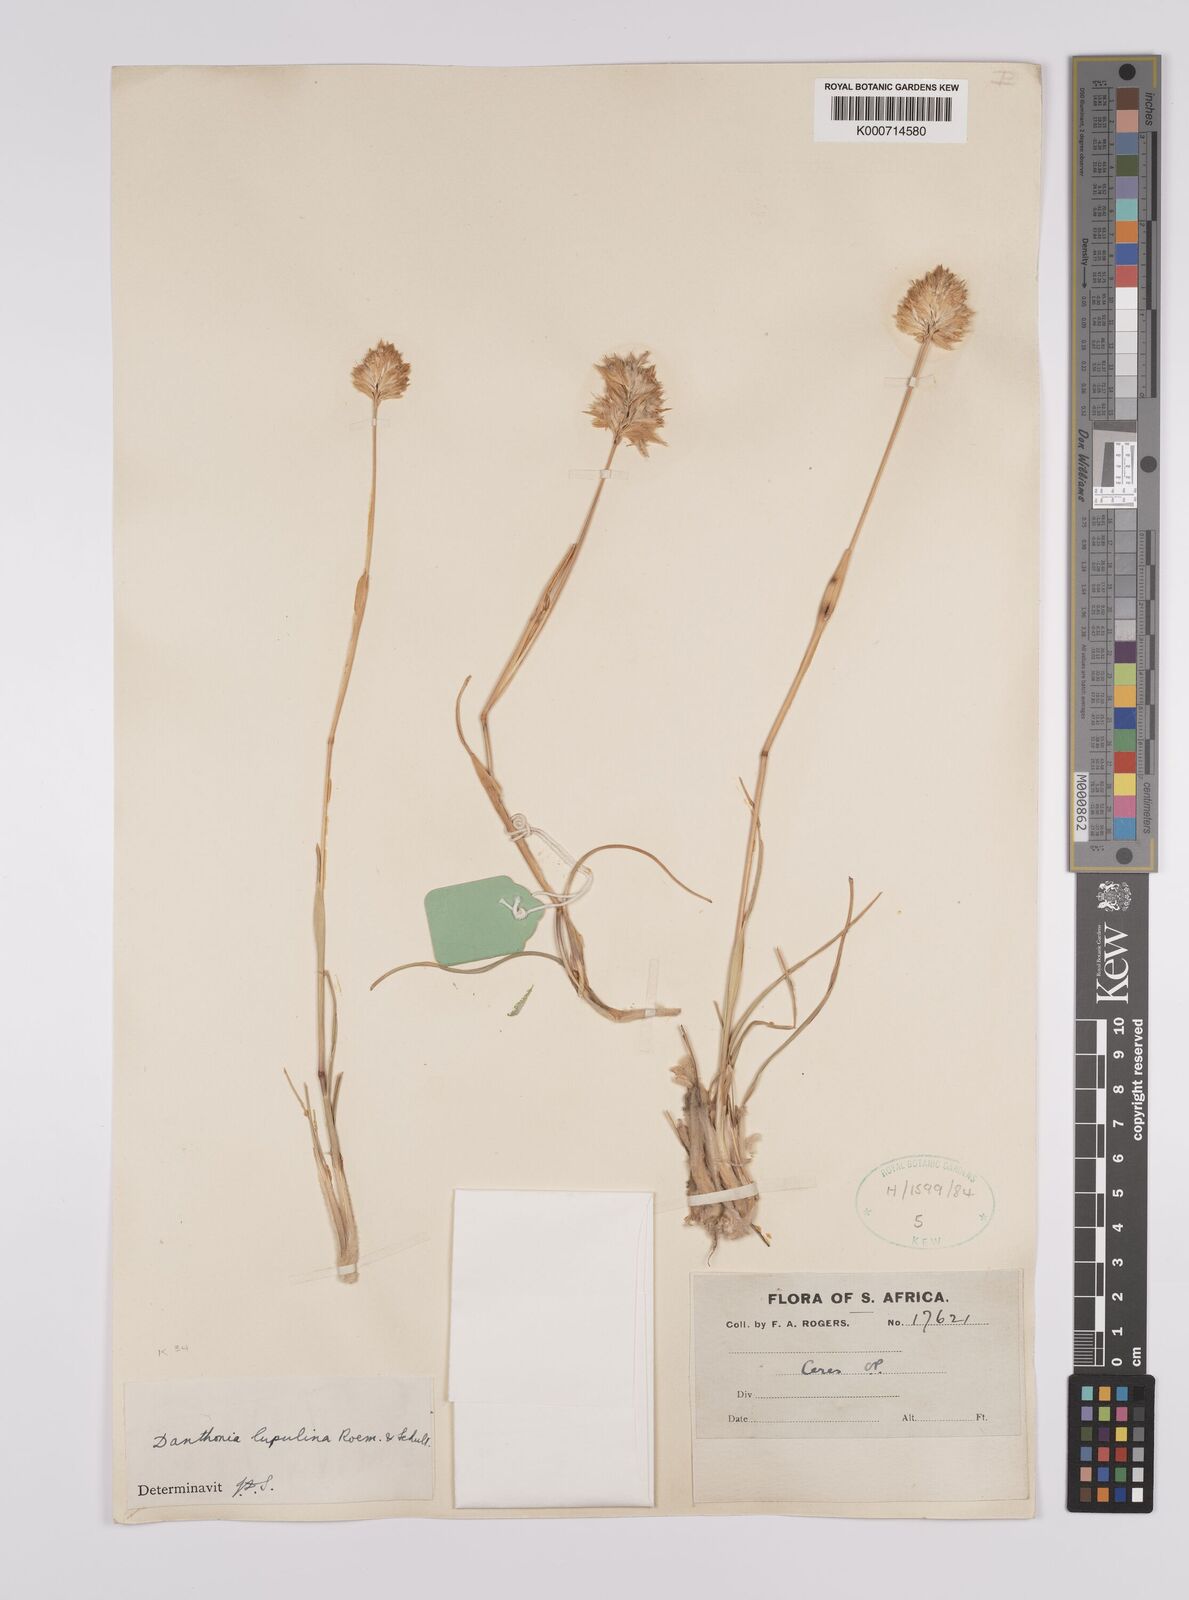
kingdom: Plantae
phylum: Tracheophyta
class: Liliopsida
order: Poales
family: Poaceae
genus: Rytidosperma
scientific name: Rytidosperma
